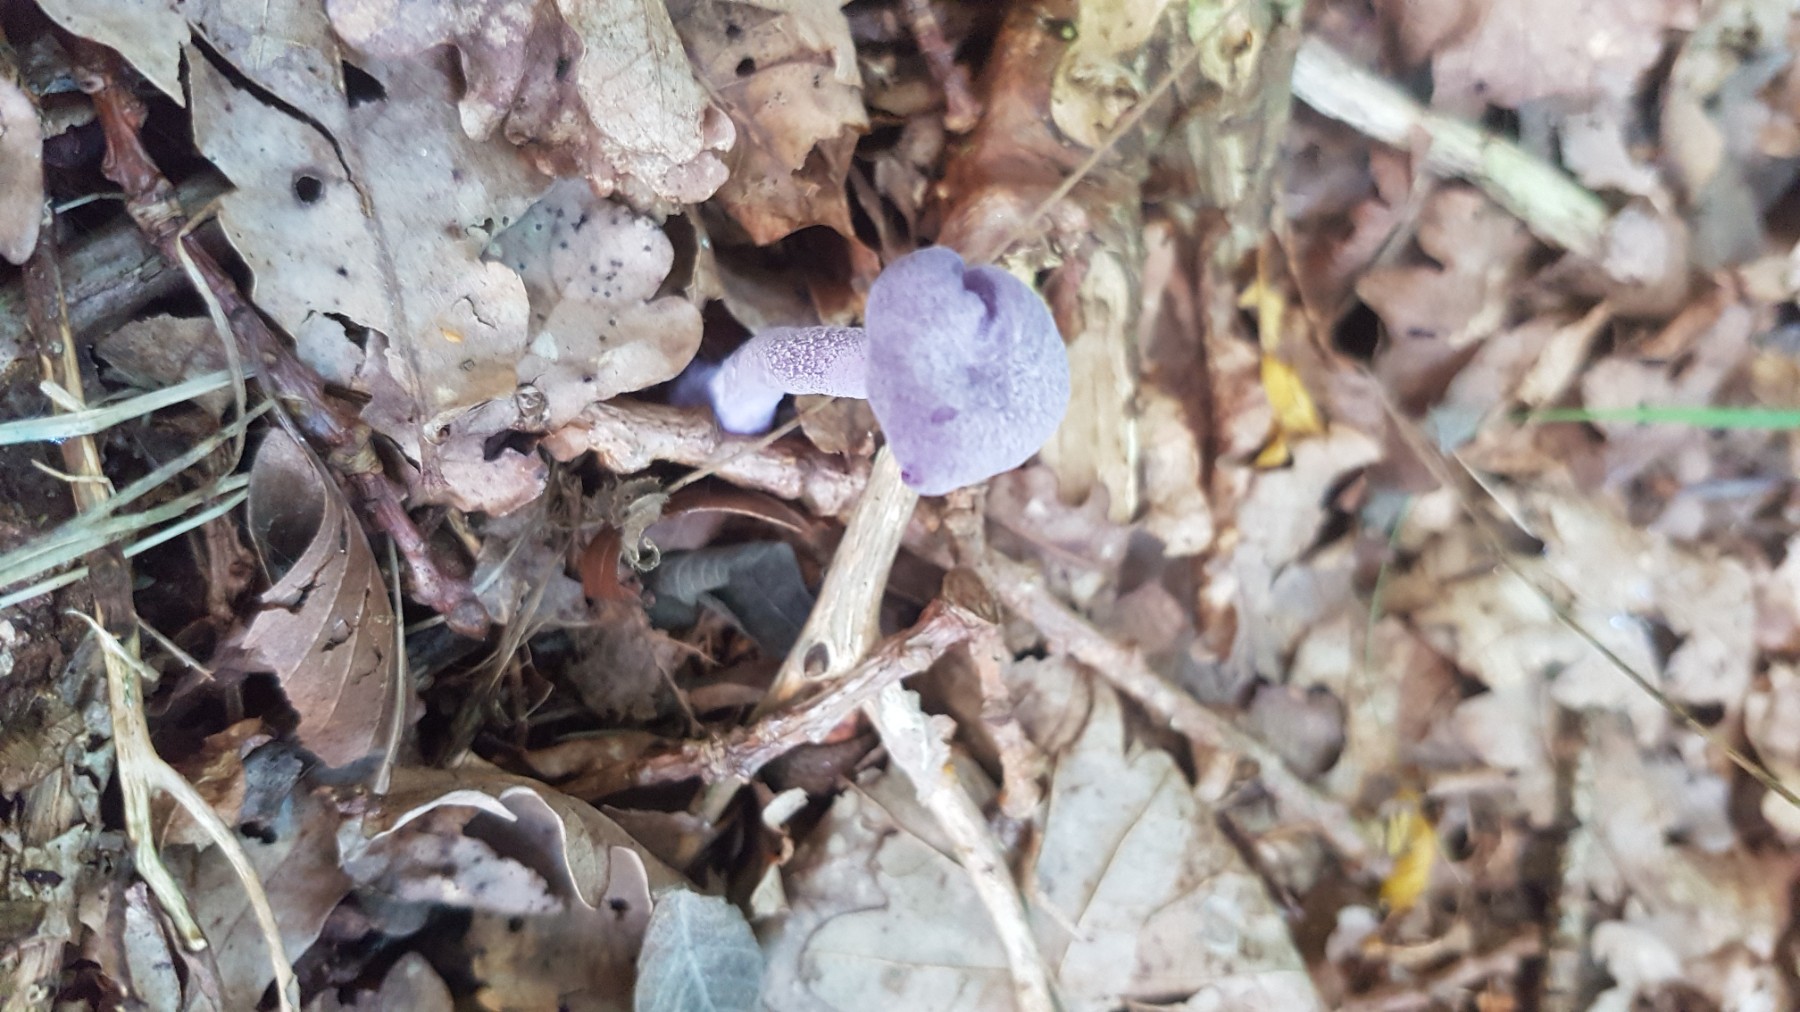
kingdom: Fungi
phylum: Basidiomycota
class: Agaricomycetes
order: Agaricales
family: Hydnangiaceae
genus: Laccaria
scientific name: Laccaria amethystina
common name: violet ametysthat
